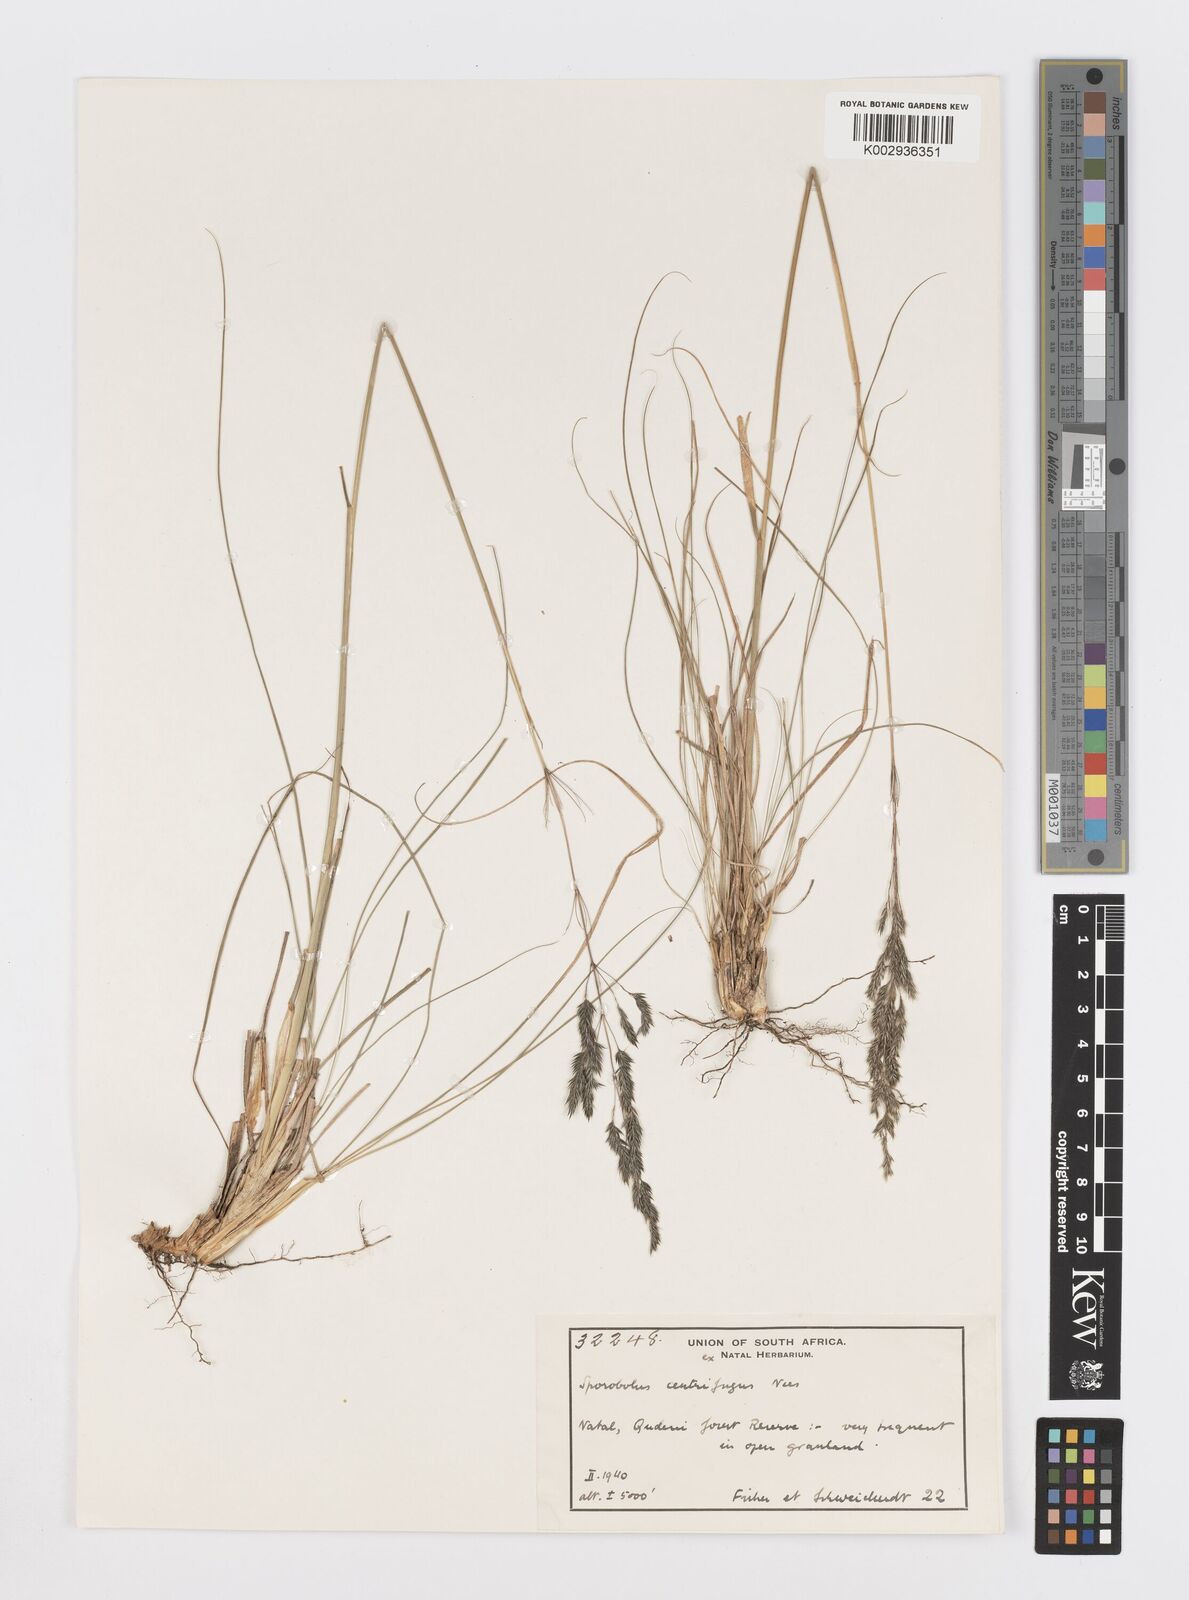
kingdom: Plantae
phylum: Tracheophyta
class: Liliopsida
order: Poales
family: Poaceae
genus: Sporobolus
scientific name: Sporobolus centrifugus
